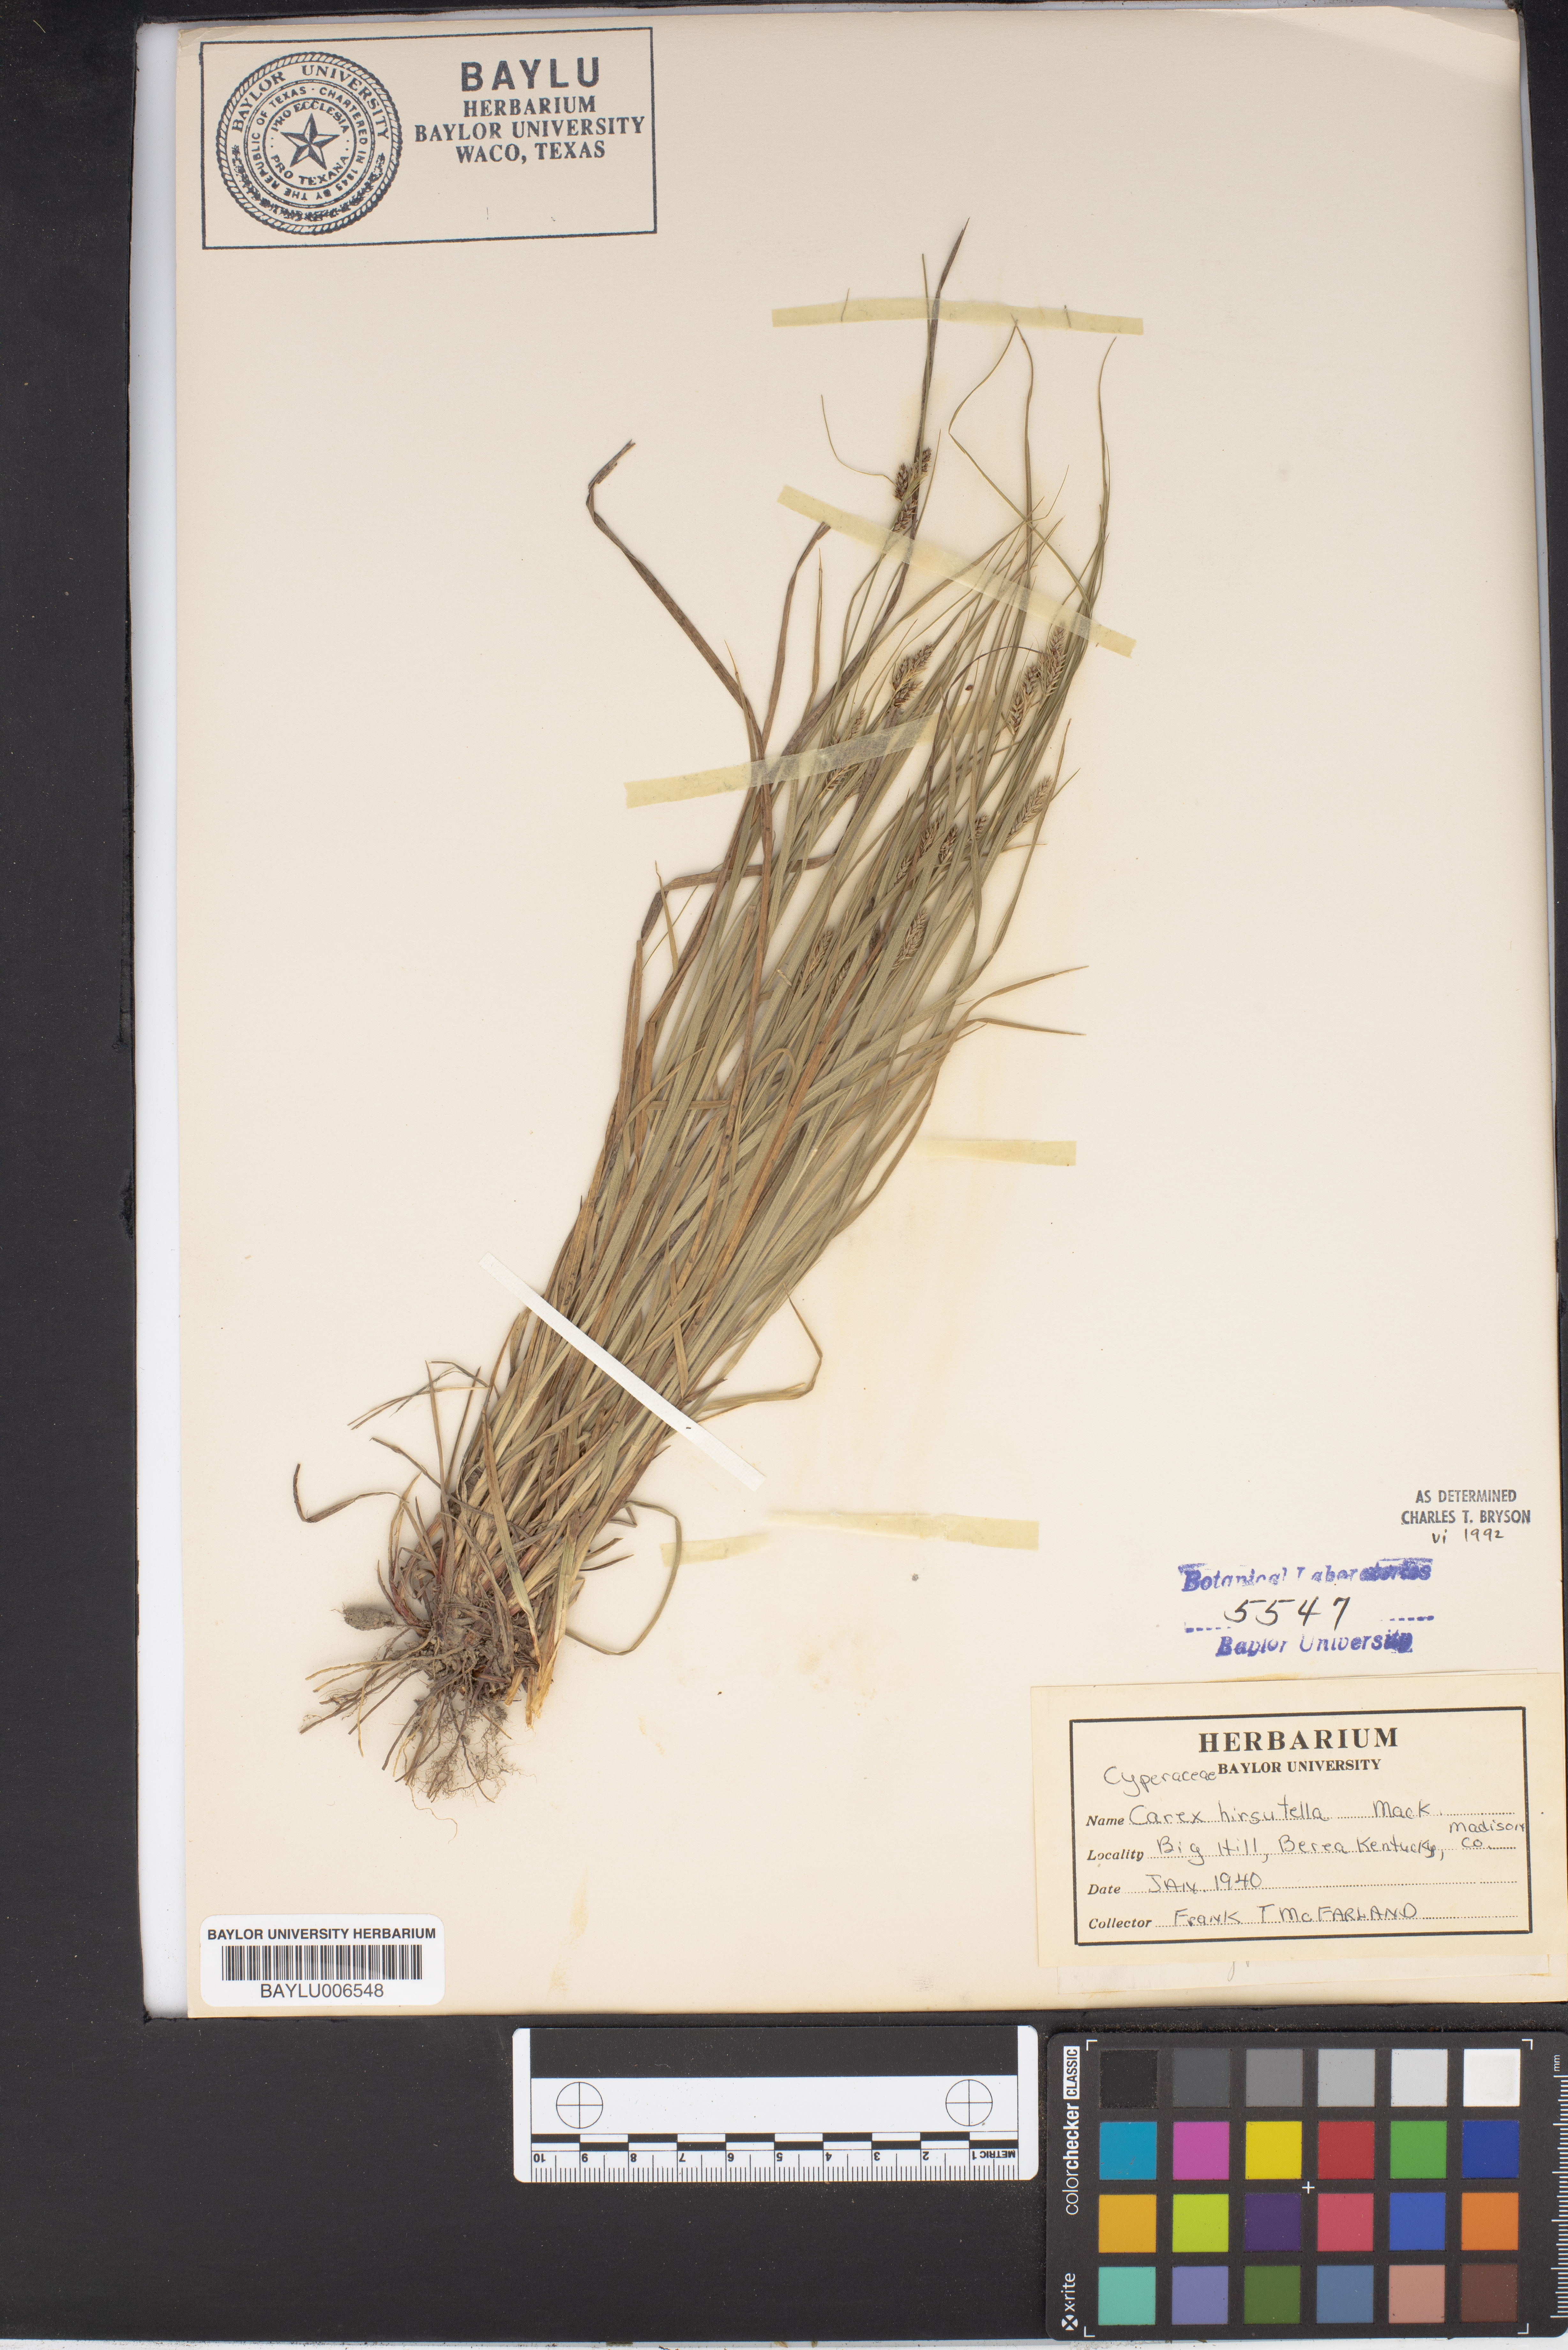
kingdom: Plantae
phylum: Tracheophyta
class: Liliopsida
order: Poales
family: Cyperaceae
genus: Carex
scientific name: Carex hirsutella
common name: Fuzzy wuzzy sedge
